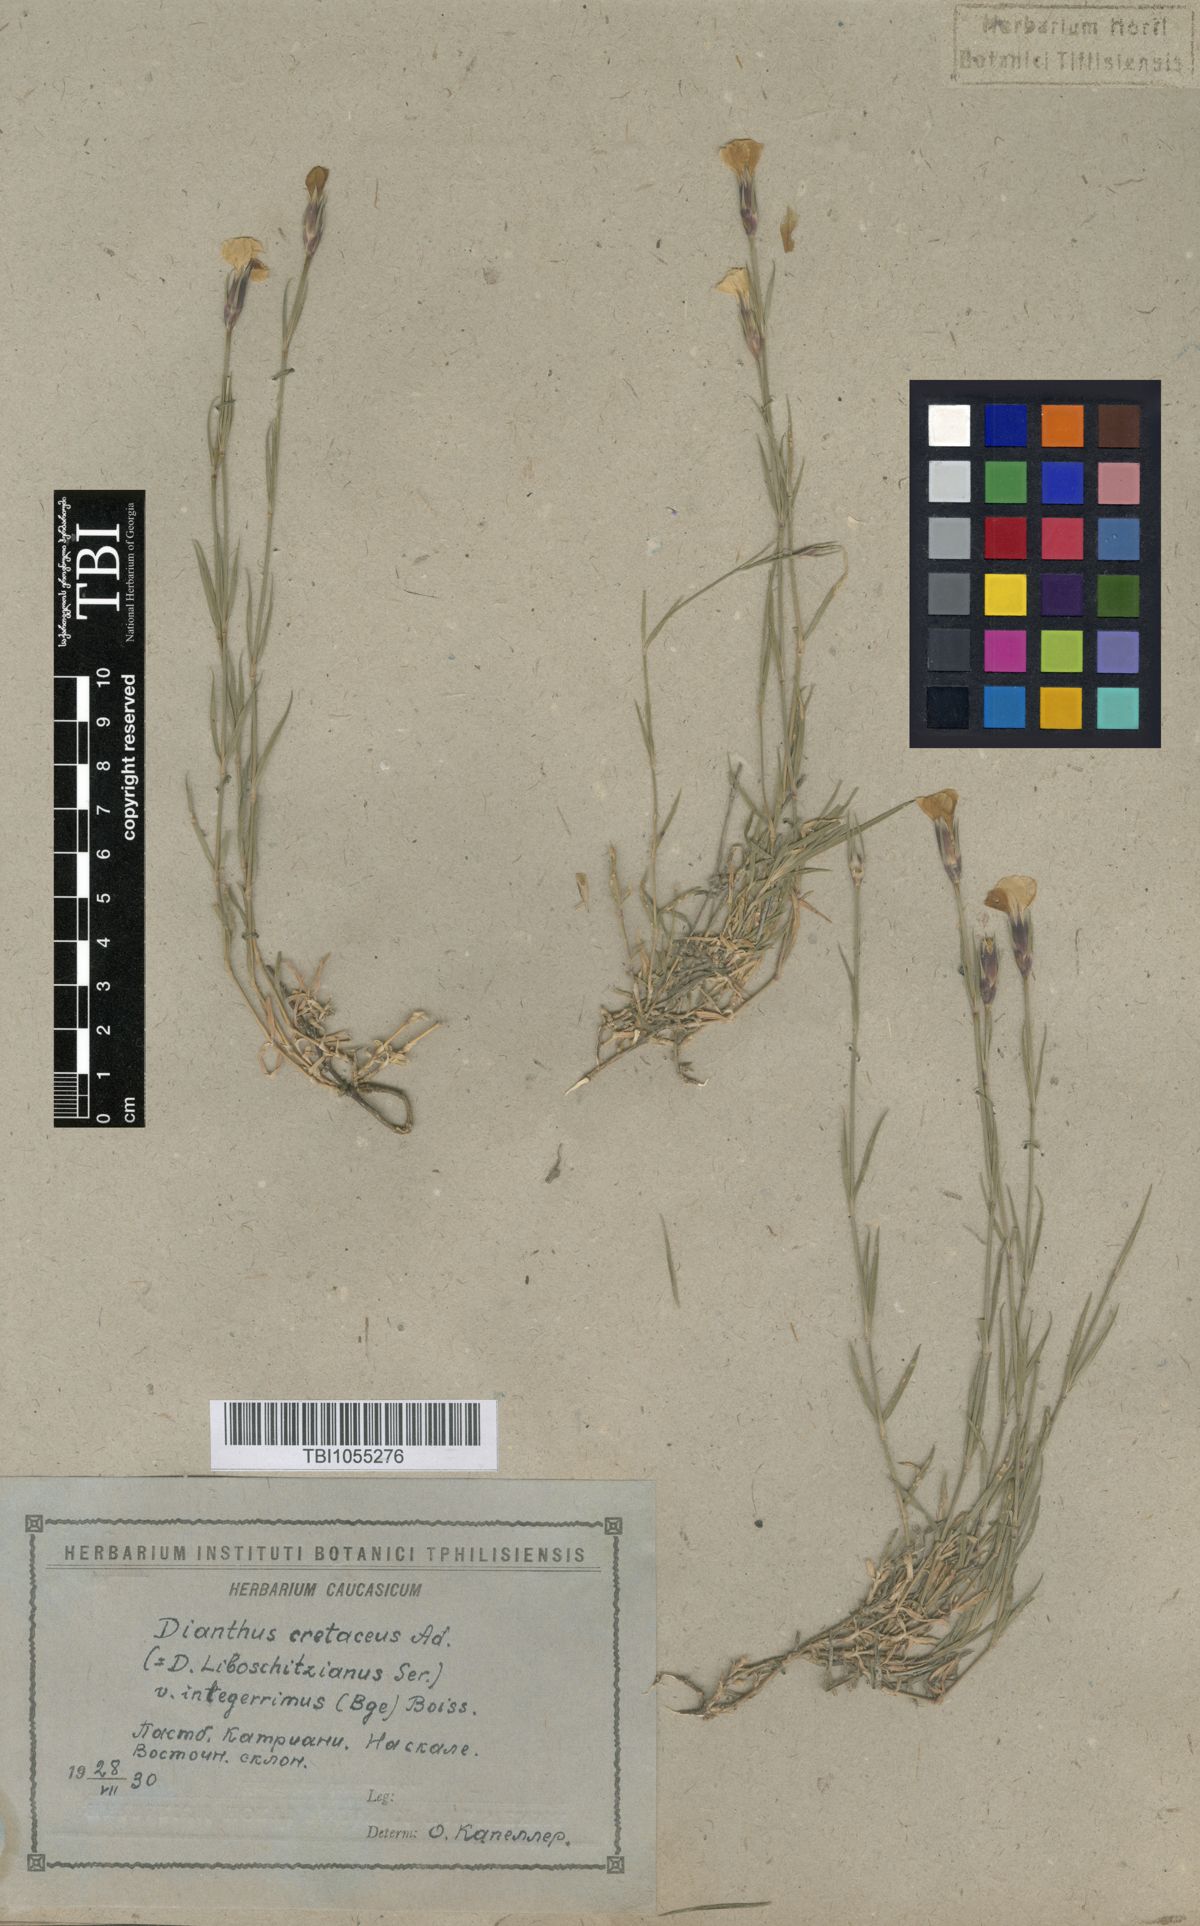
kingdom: Plantae
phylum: Tracheophyta
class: Magnoliopsida
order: Caryophyllales
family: Caryophyllaceae
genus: Dianthus
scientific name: Dianthus cretaceus
